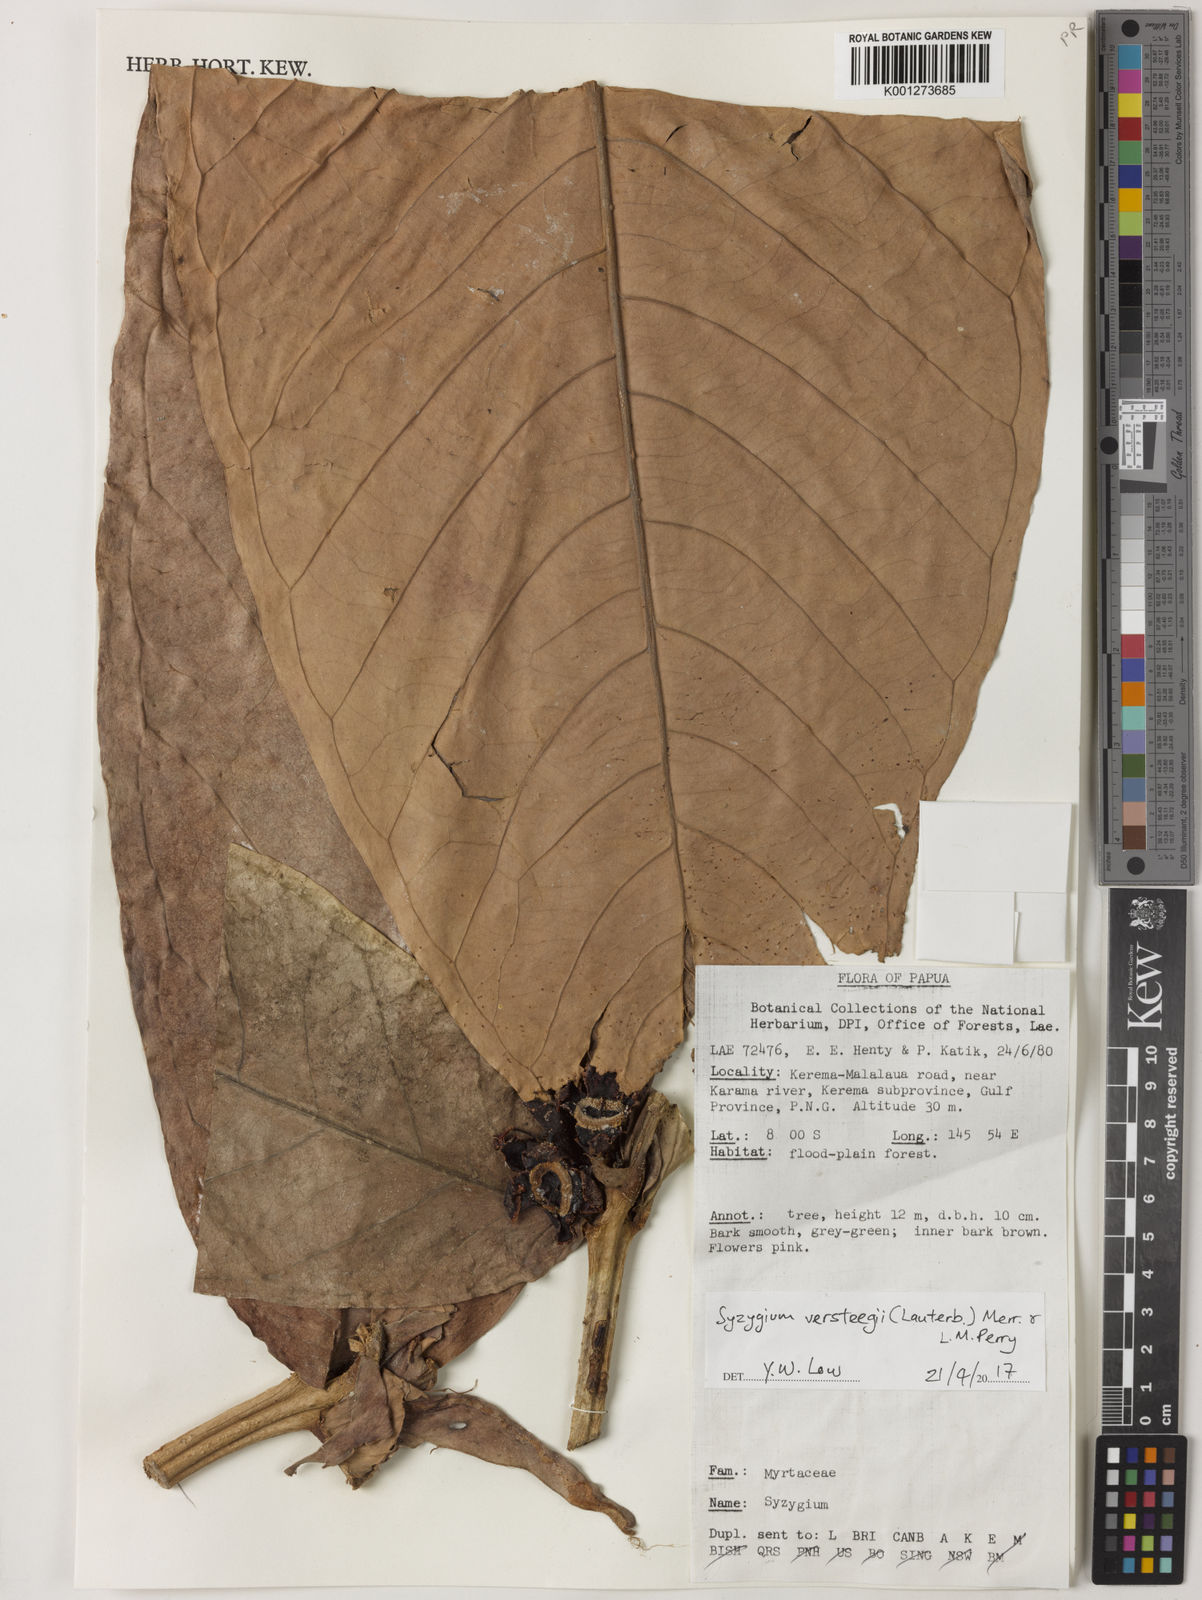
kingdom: Plantae
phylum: Tracheophyta
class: Magnoliopsida
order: Myrtales
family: Myrtaceae
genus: Syzygium
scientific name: Syzygium versteegii
